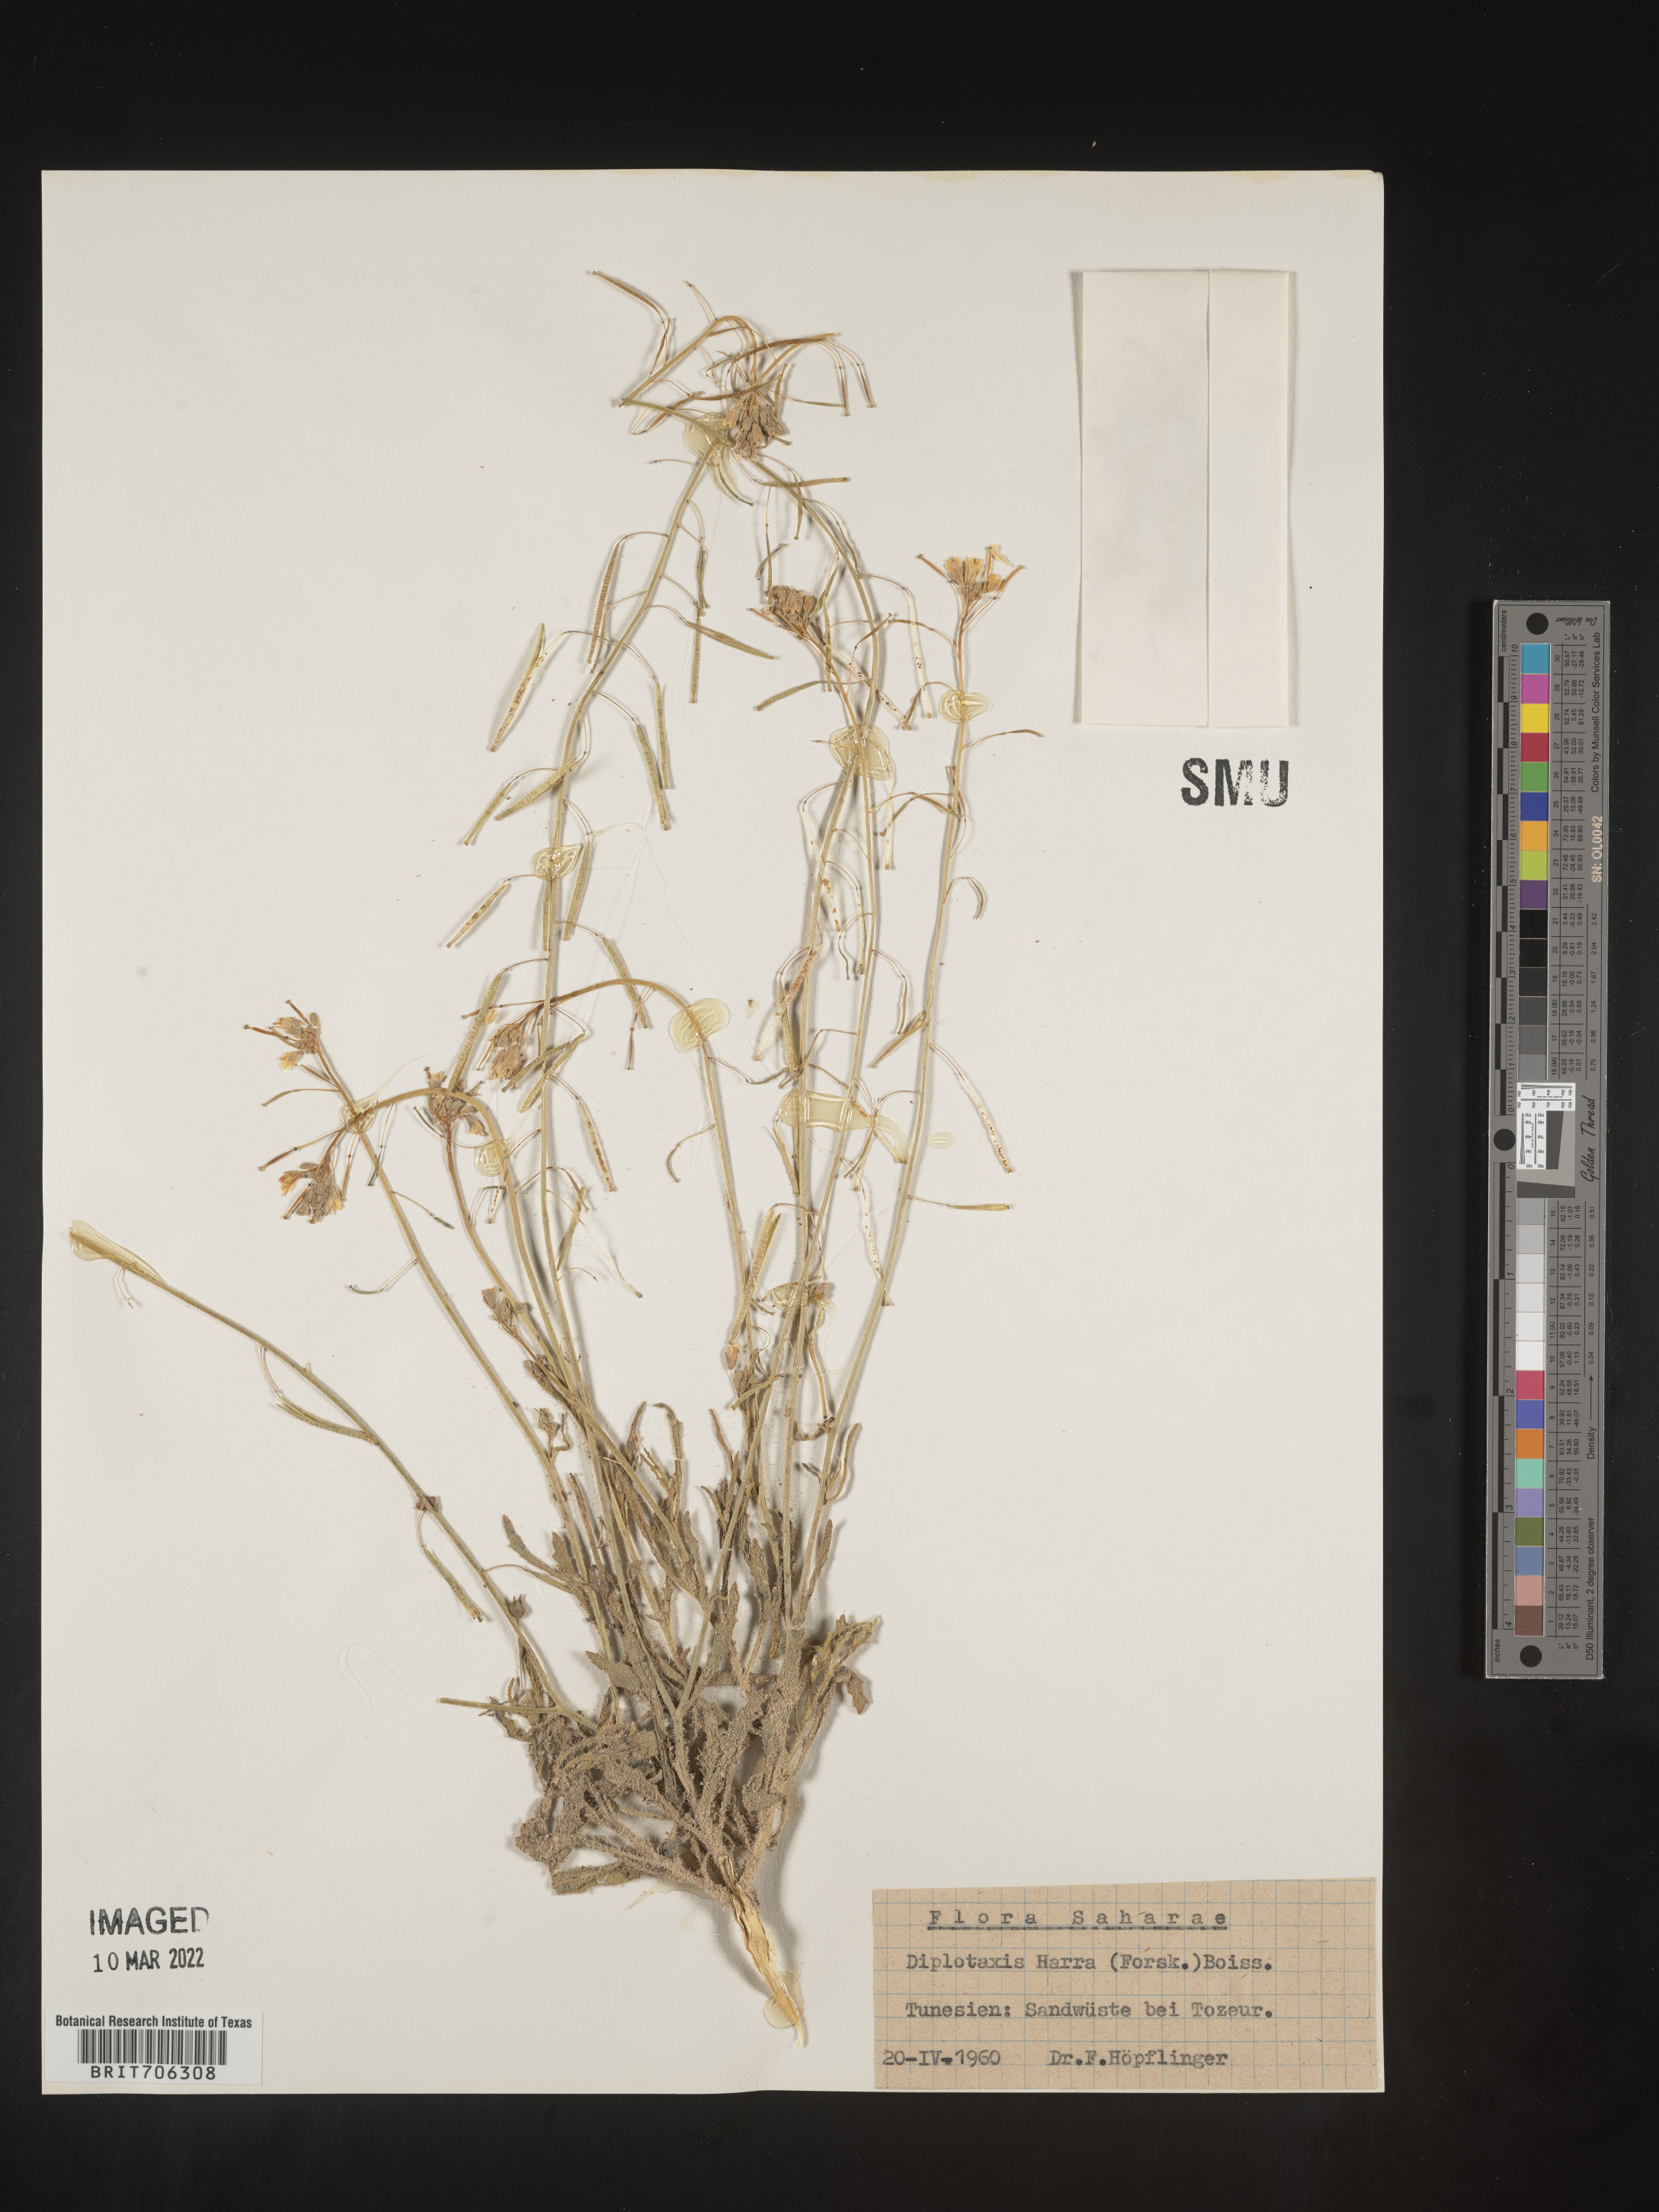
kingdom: Plantae
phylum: Tracheophyta
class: Magnoliopsida
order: Brassicales
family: Brassicaceae
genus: Diplotaxis
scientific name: Diplotaxis
